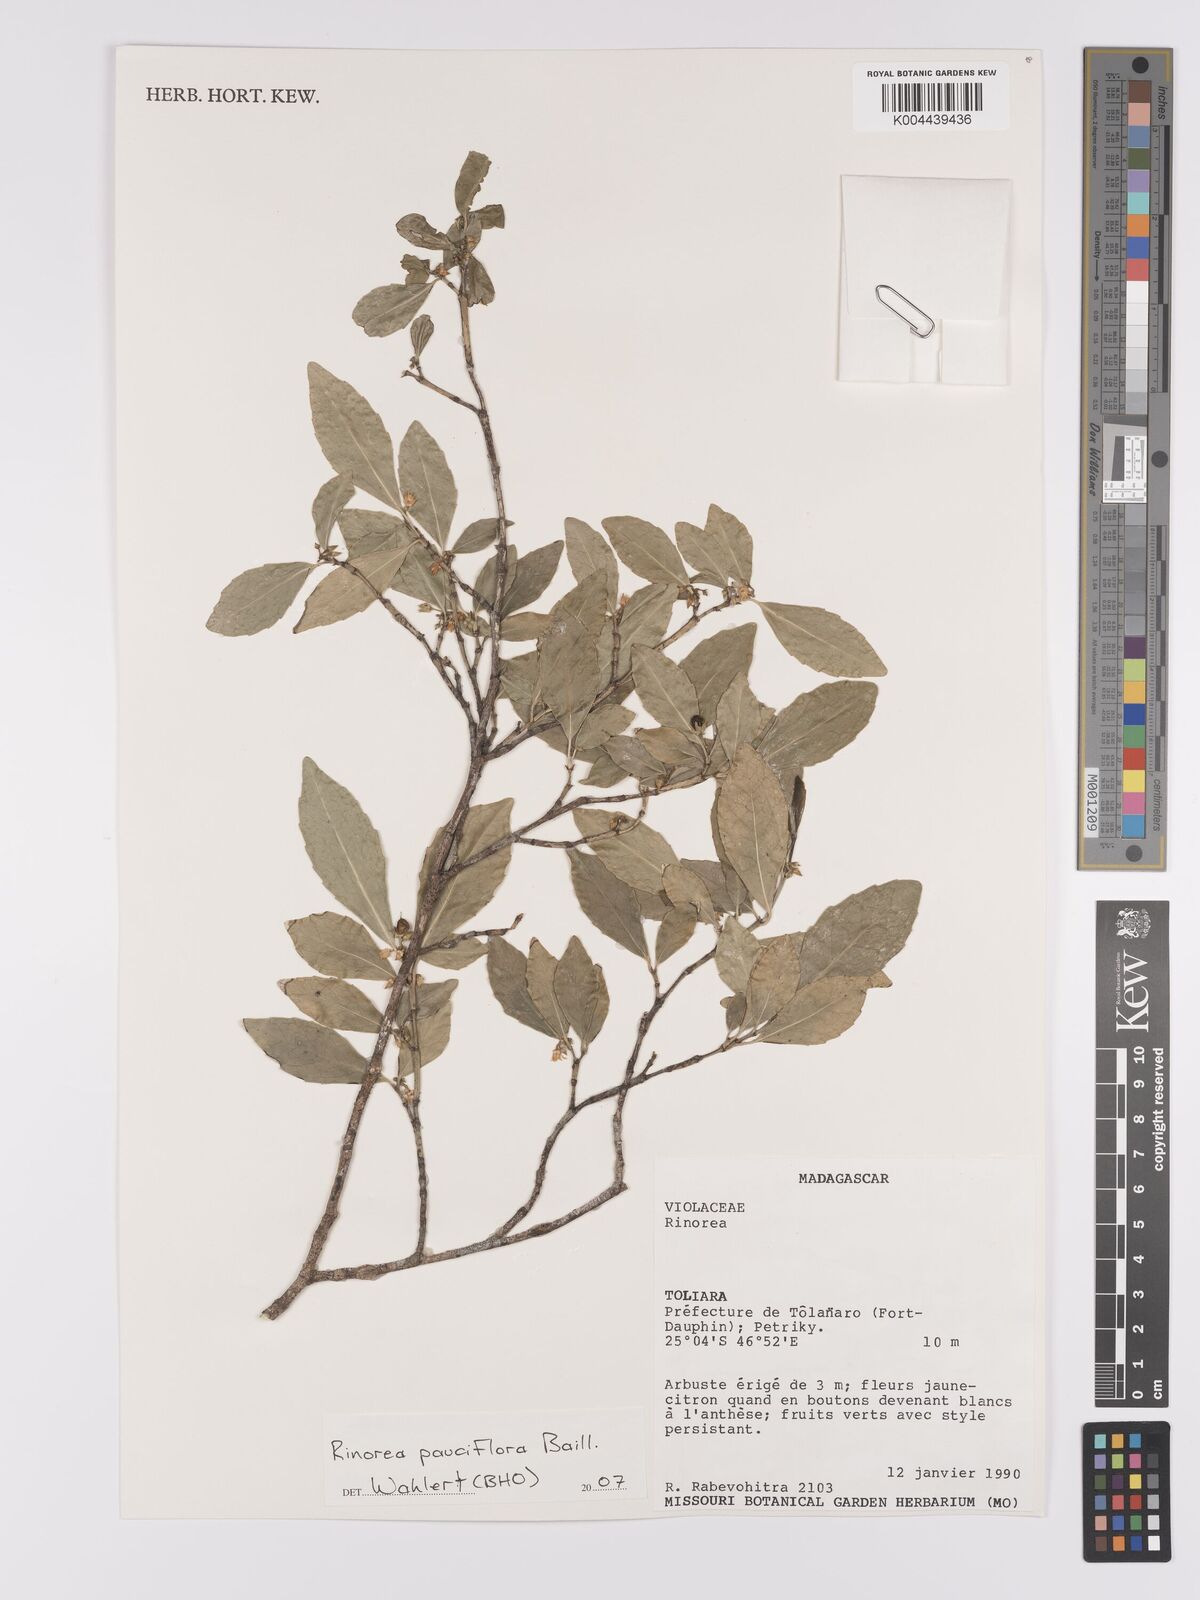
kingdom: Plantae
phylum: Tracheophyta
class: Magnoliopsida
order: Malpighiales
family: Violaceae
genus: Rinorea
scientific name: Rinorea pauciflora
